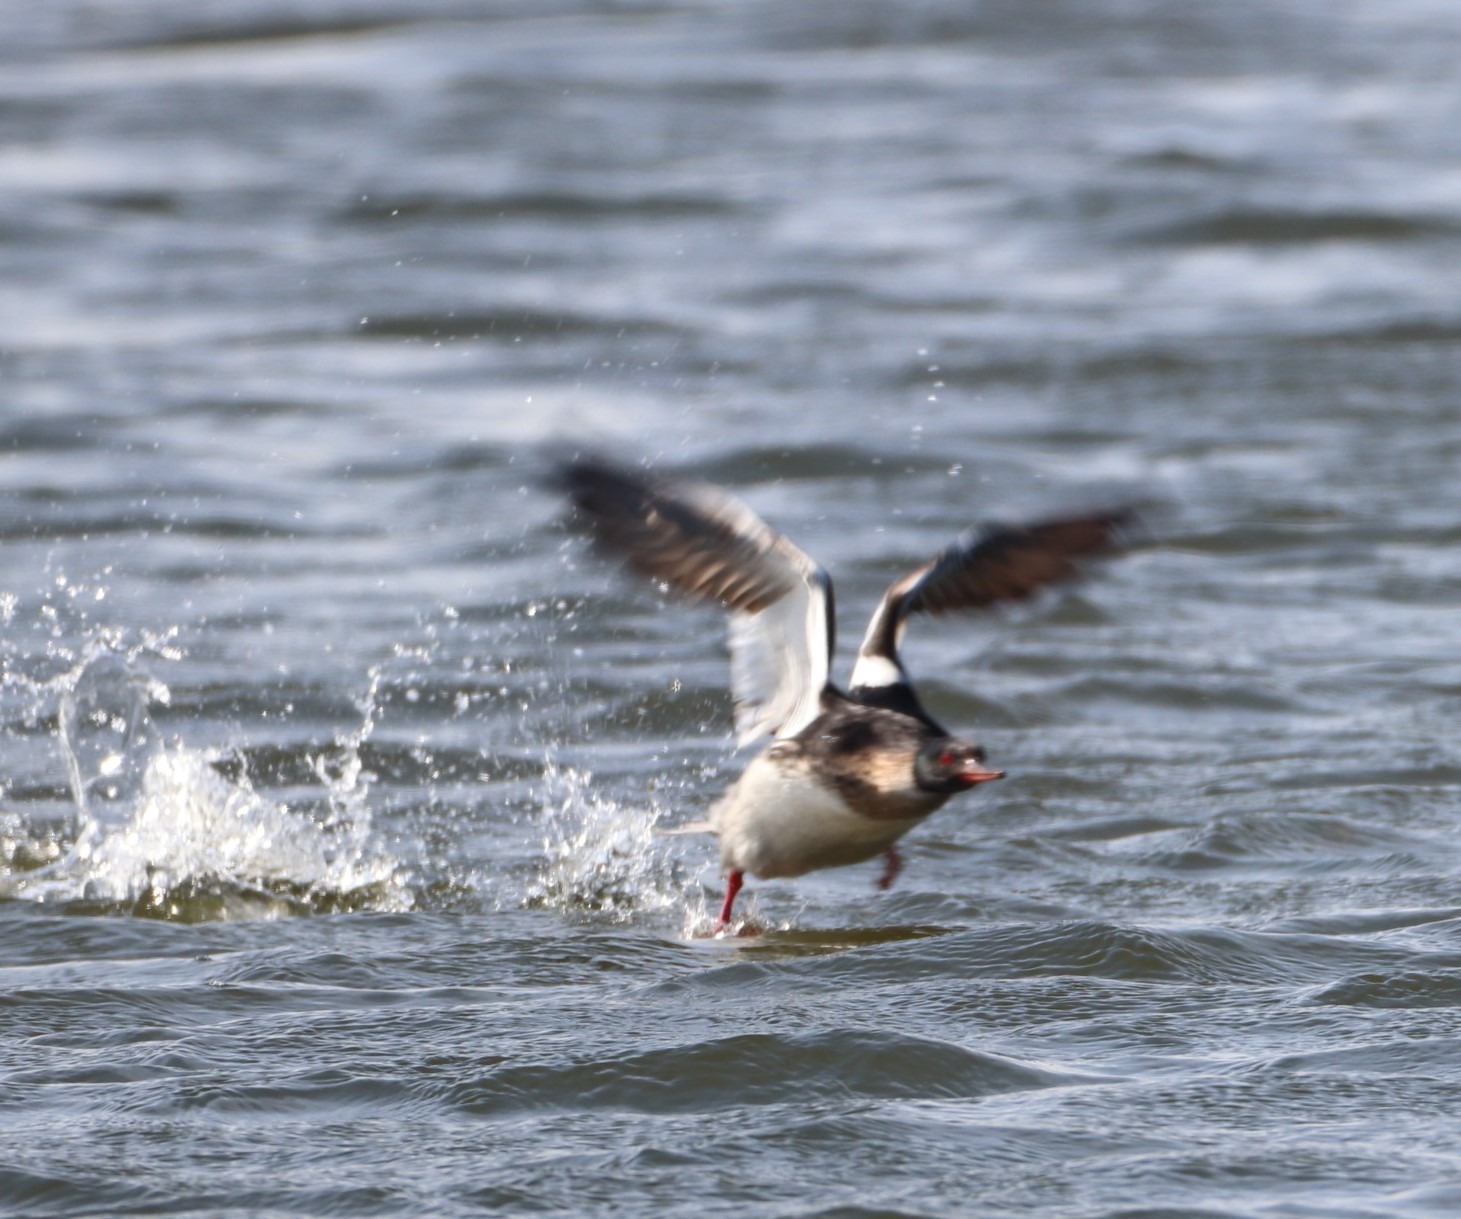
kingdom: Animalia
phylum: Chordata
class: Aves
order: Anseriformes
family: Anatidae
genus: Mergus
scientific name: Mergus serrator
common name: Toppet skallesluger
